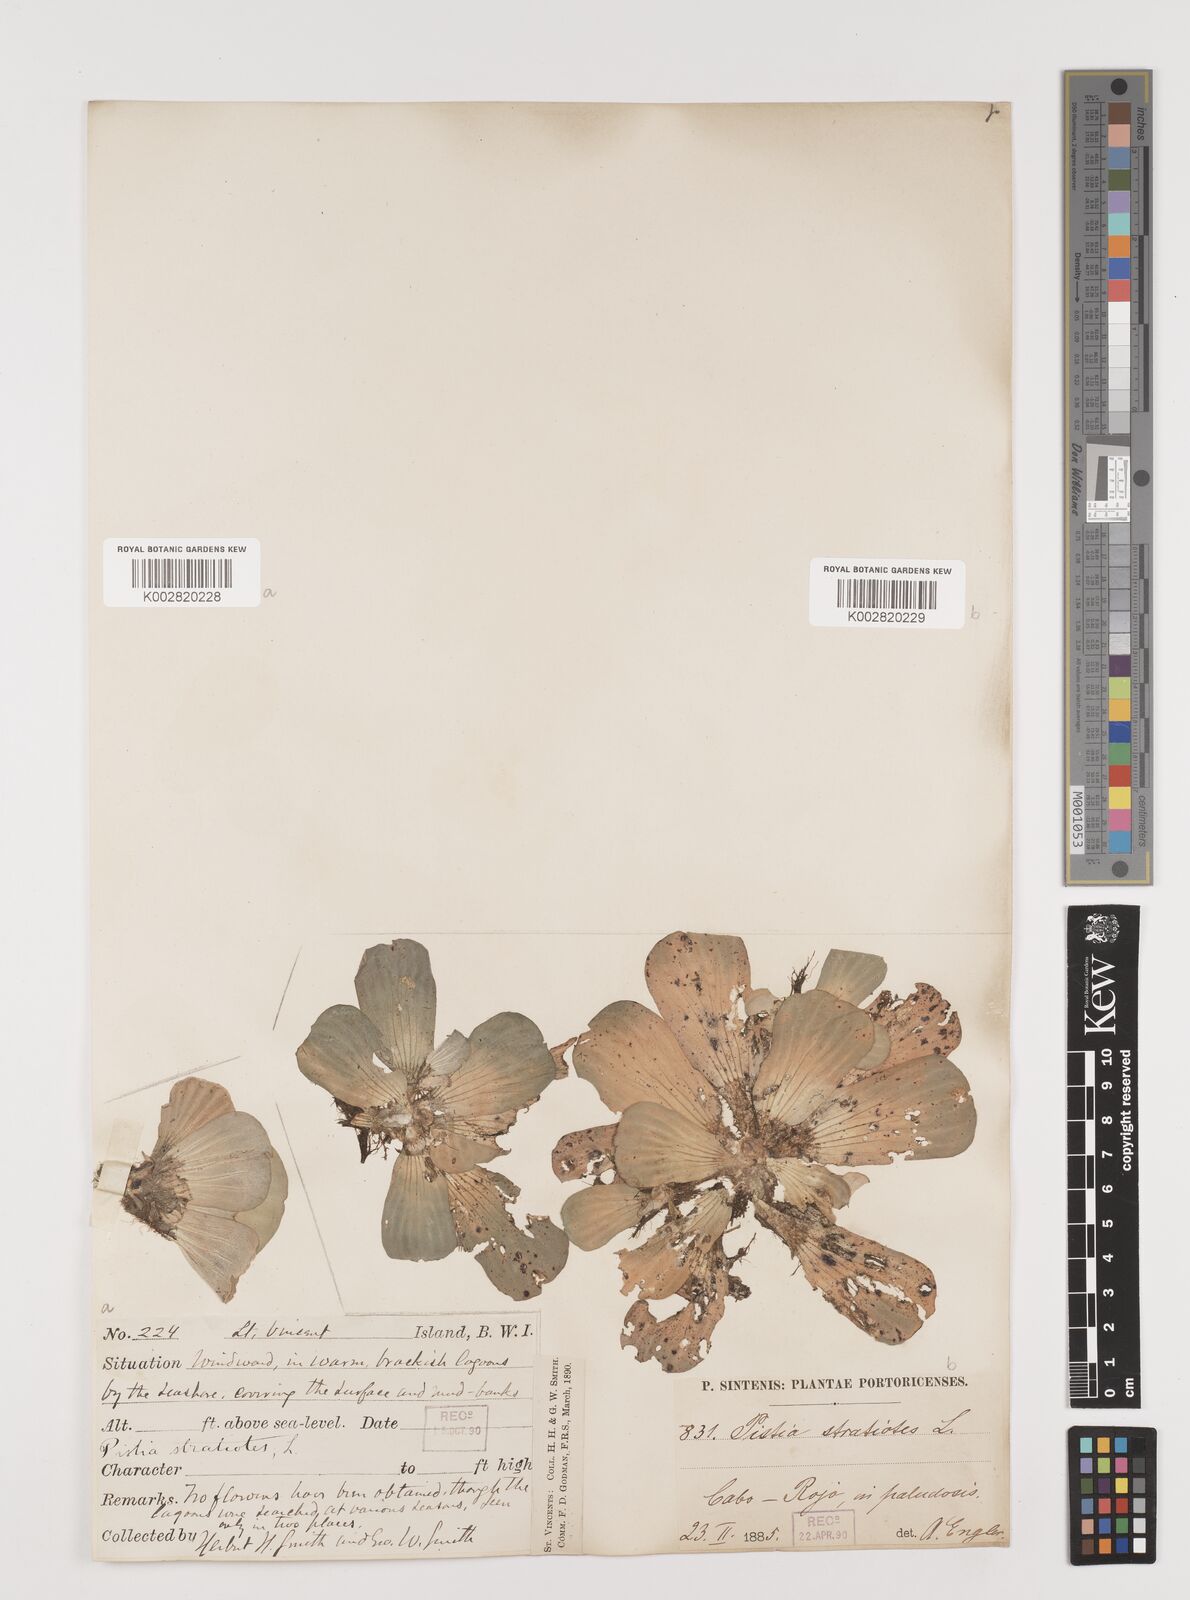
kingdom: Plantae
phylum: Tracheophyta
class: Liliopsida
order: Alismatales
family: Araceae
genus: Pistia
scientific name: Pistia stratiotes
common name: Water lettuce
